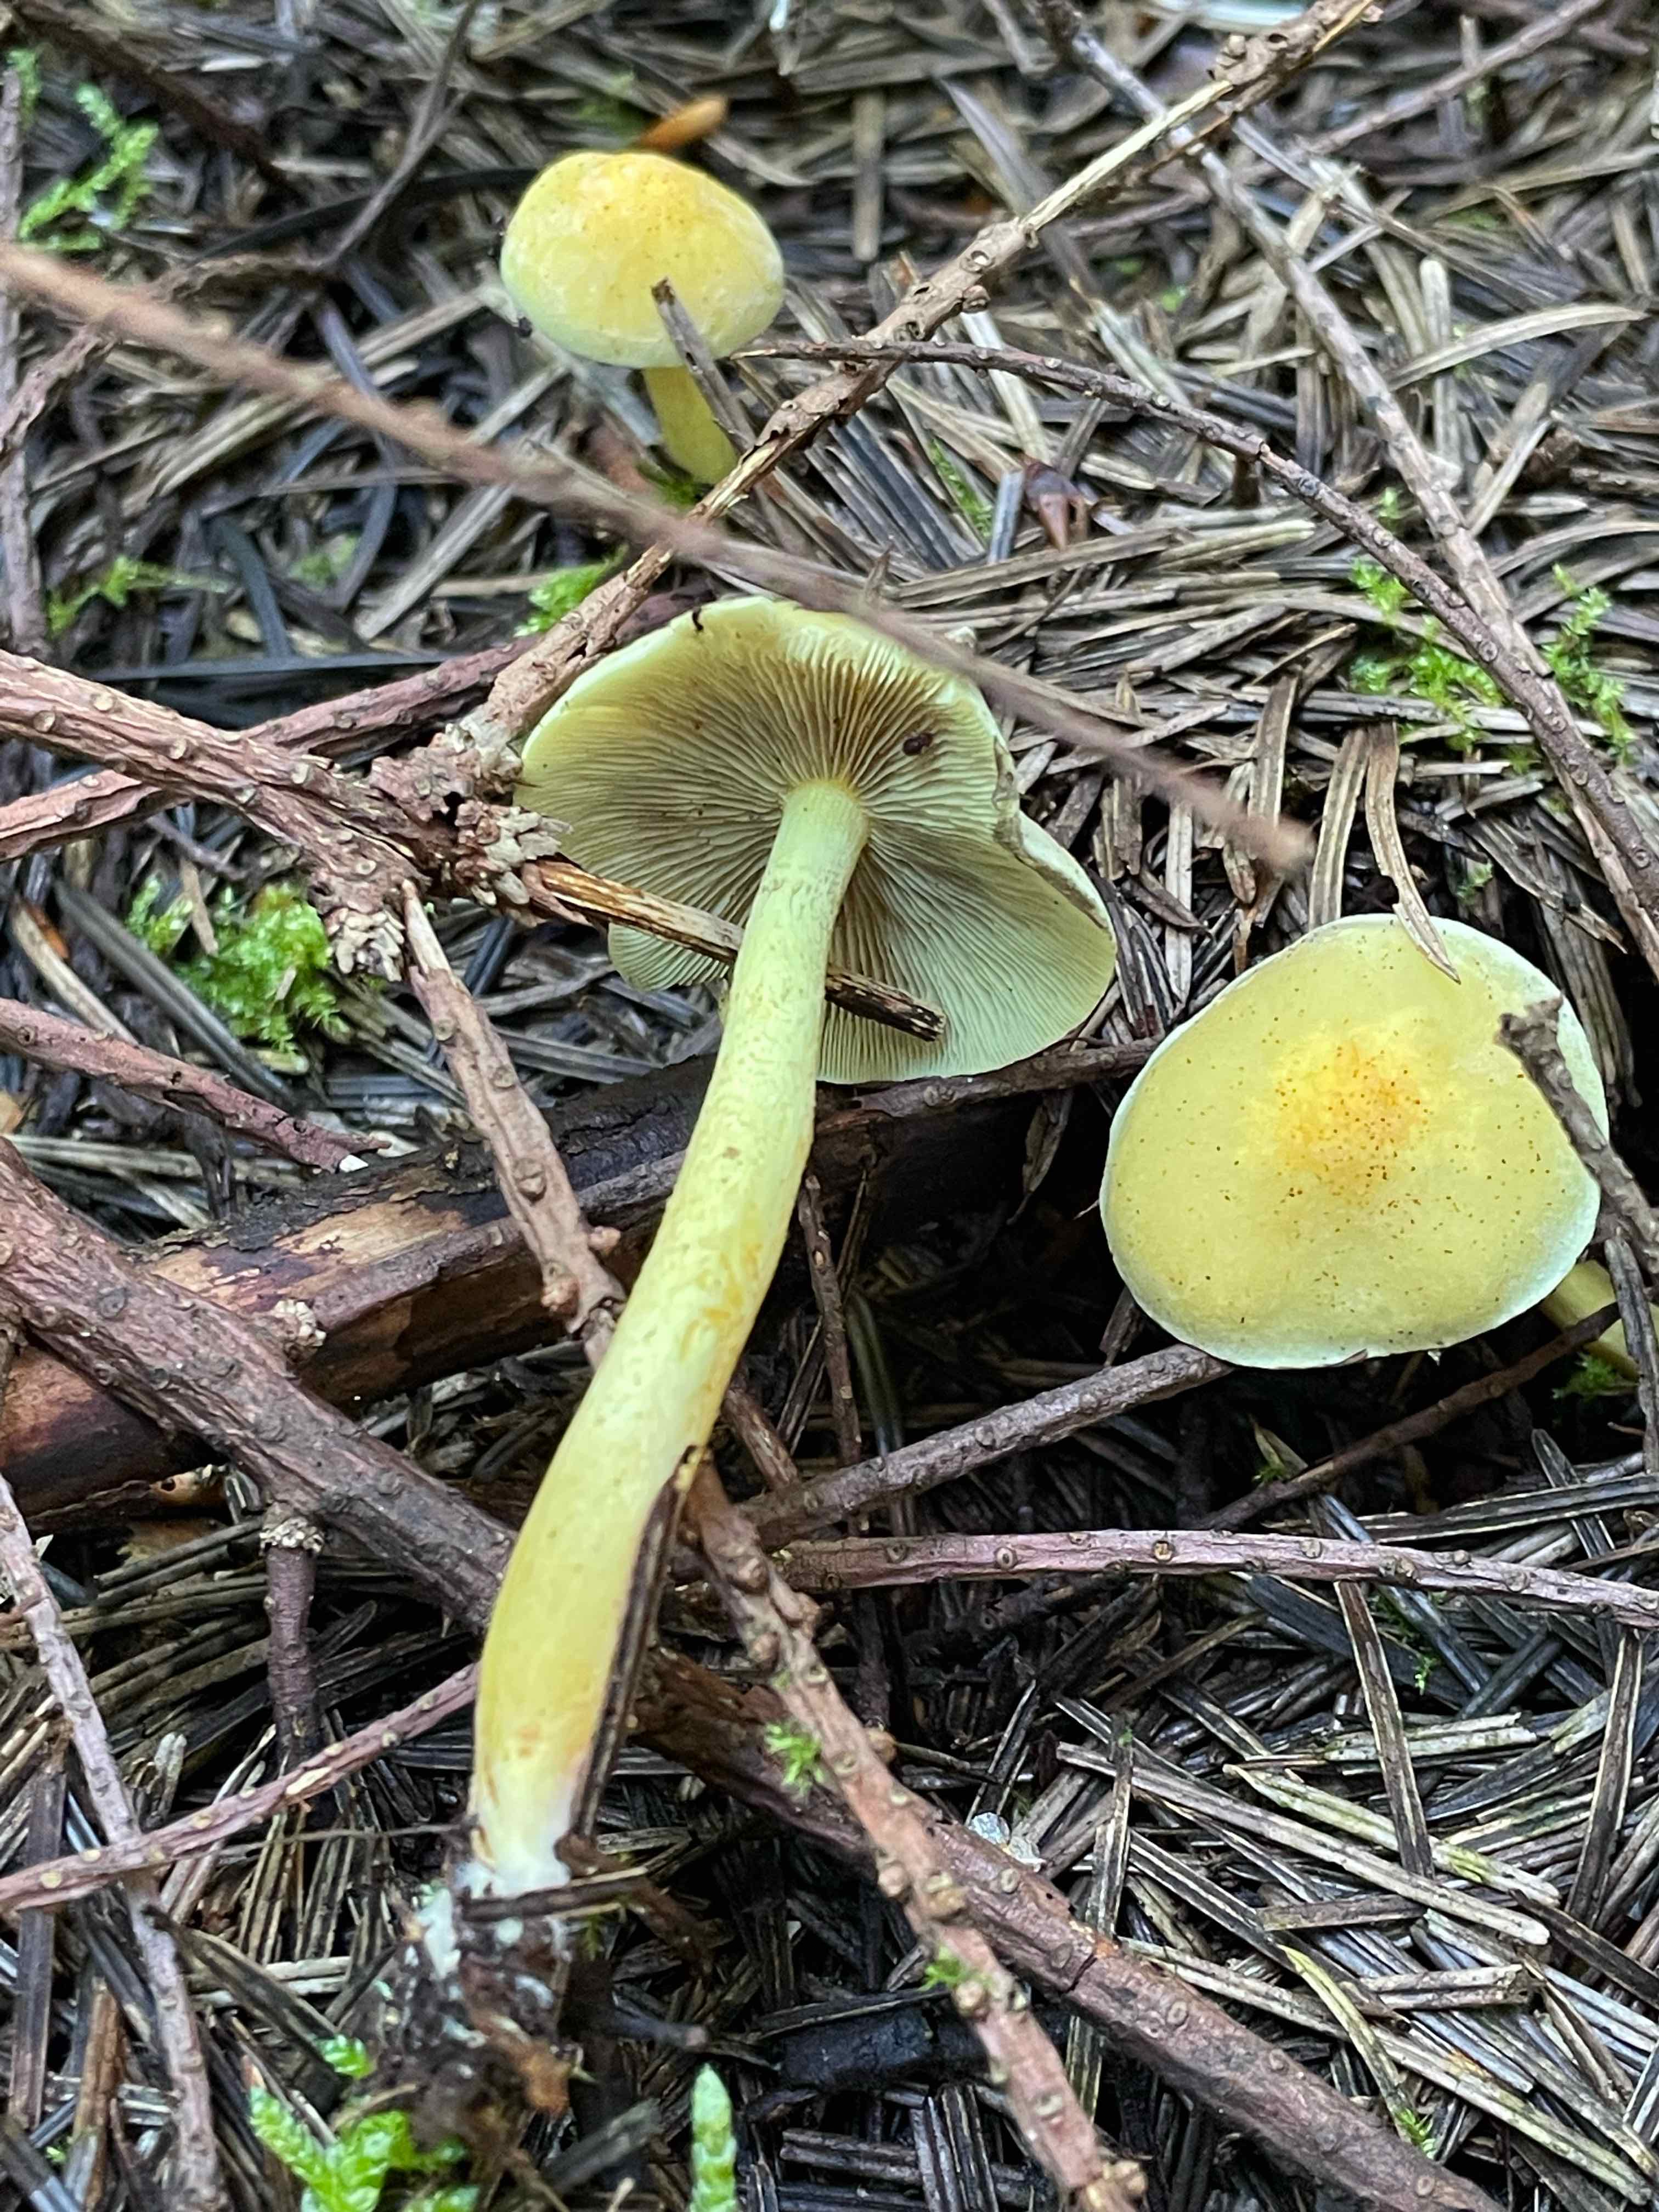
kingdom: Fungi
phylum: Basidiomycota
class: Agaricomycetes
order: Agaricales
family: Strophariaceae
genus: Hypholoma
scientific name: Hypholoma fasciculare
